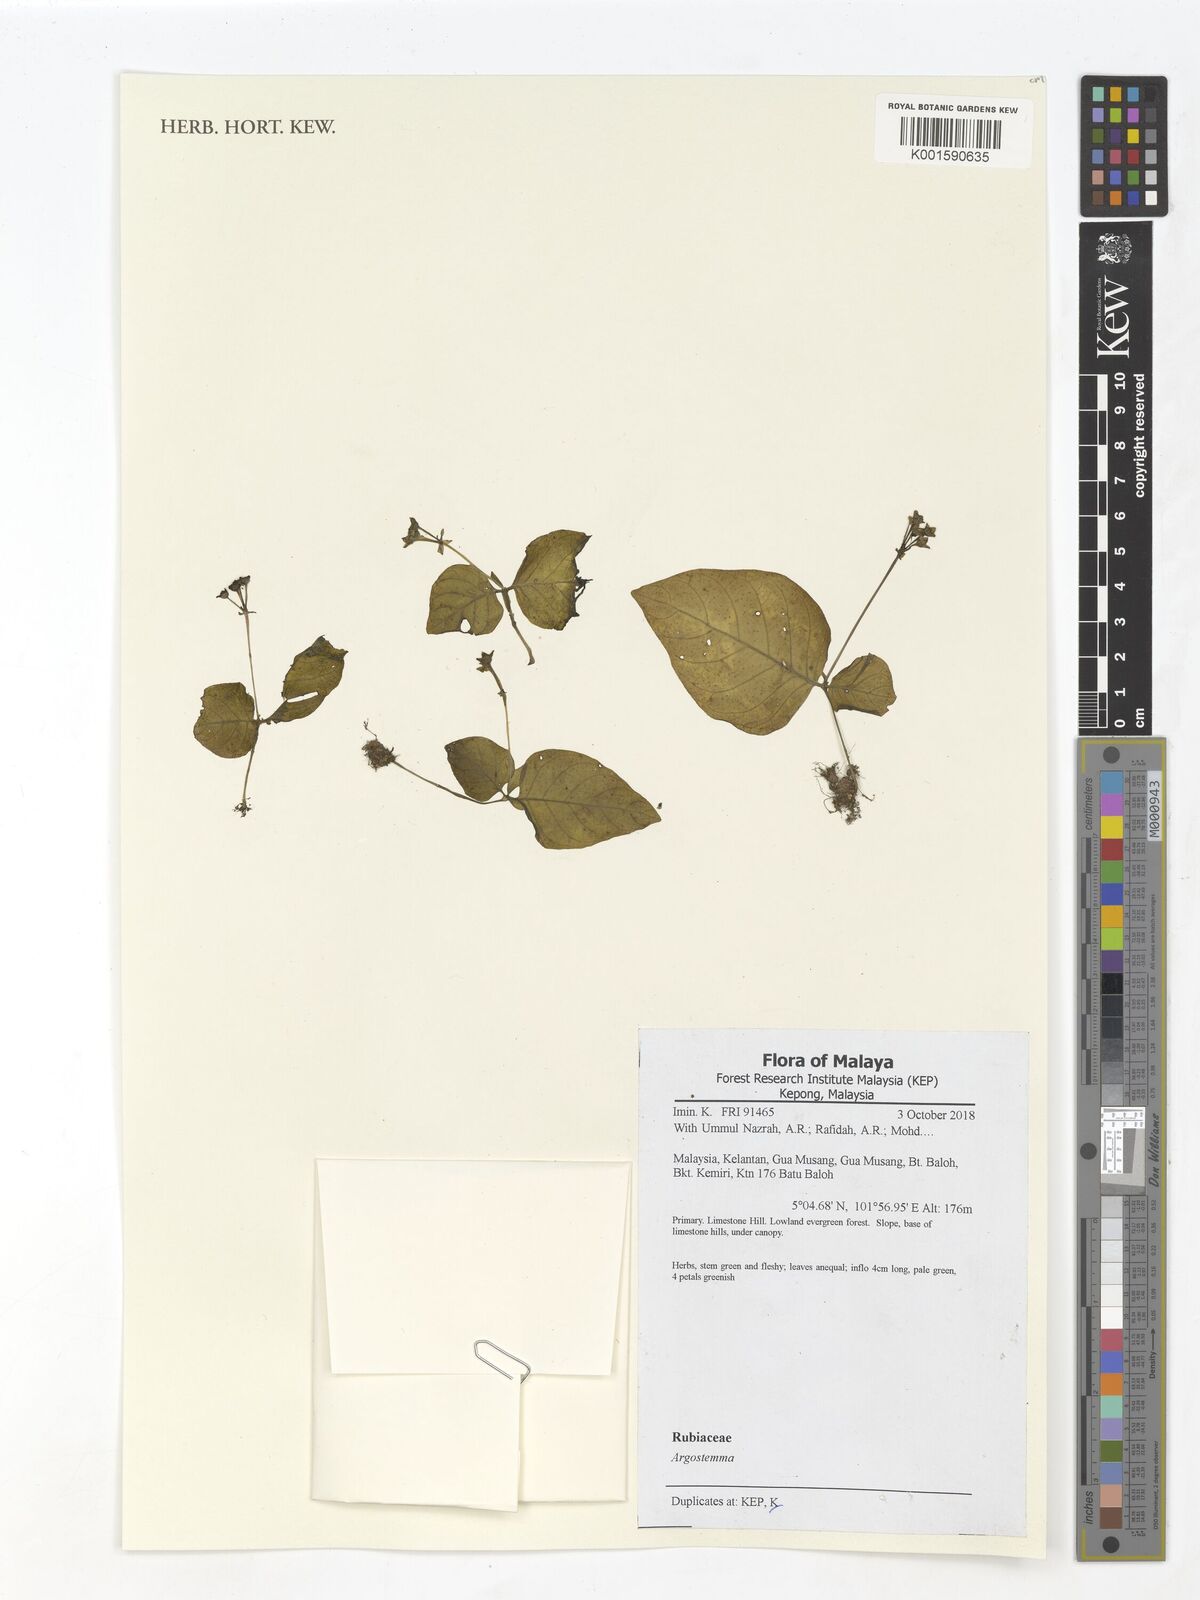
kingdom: Plantae
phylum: Tracheophyta
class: Magnoliopsida
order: Gentianales
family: Rubiaceae
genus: Argostemma
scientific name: Argostemma
